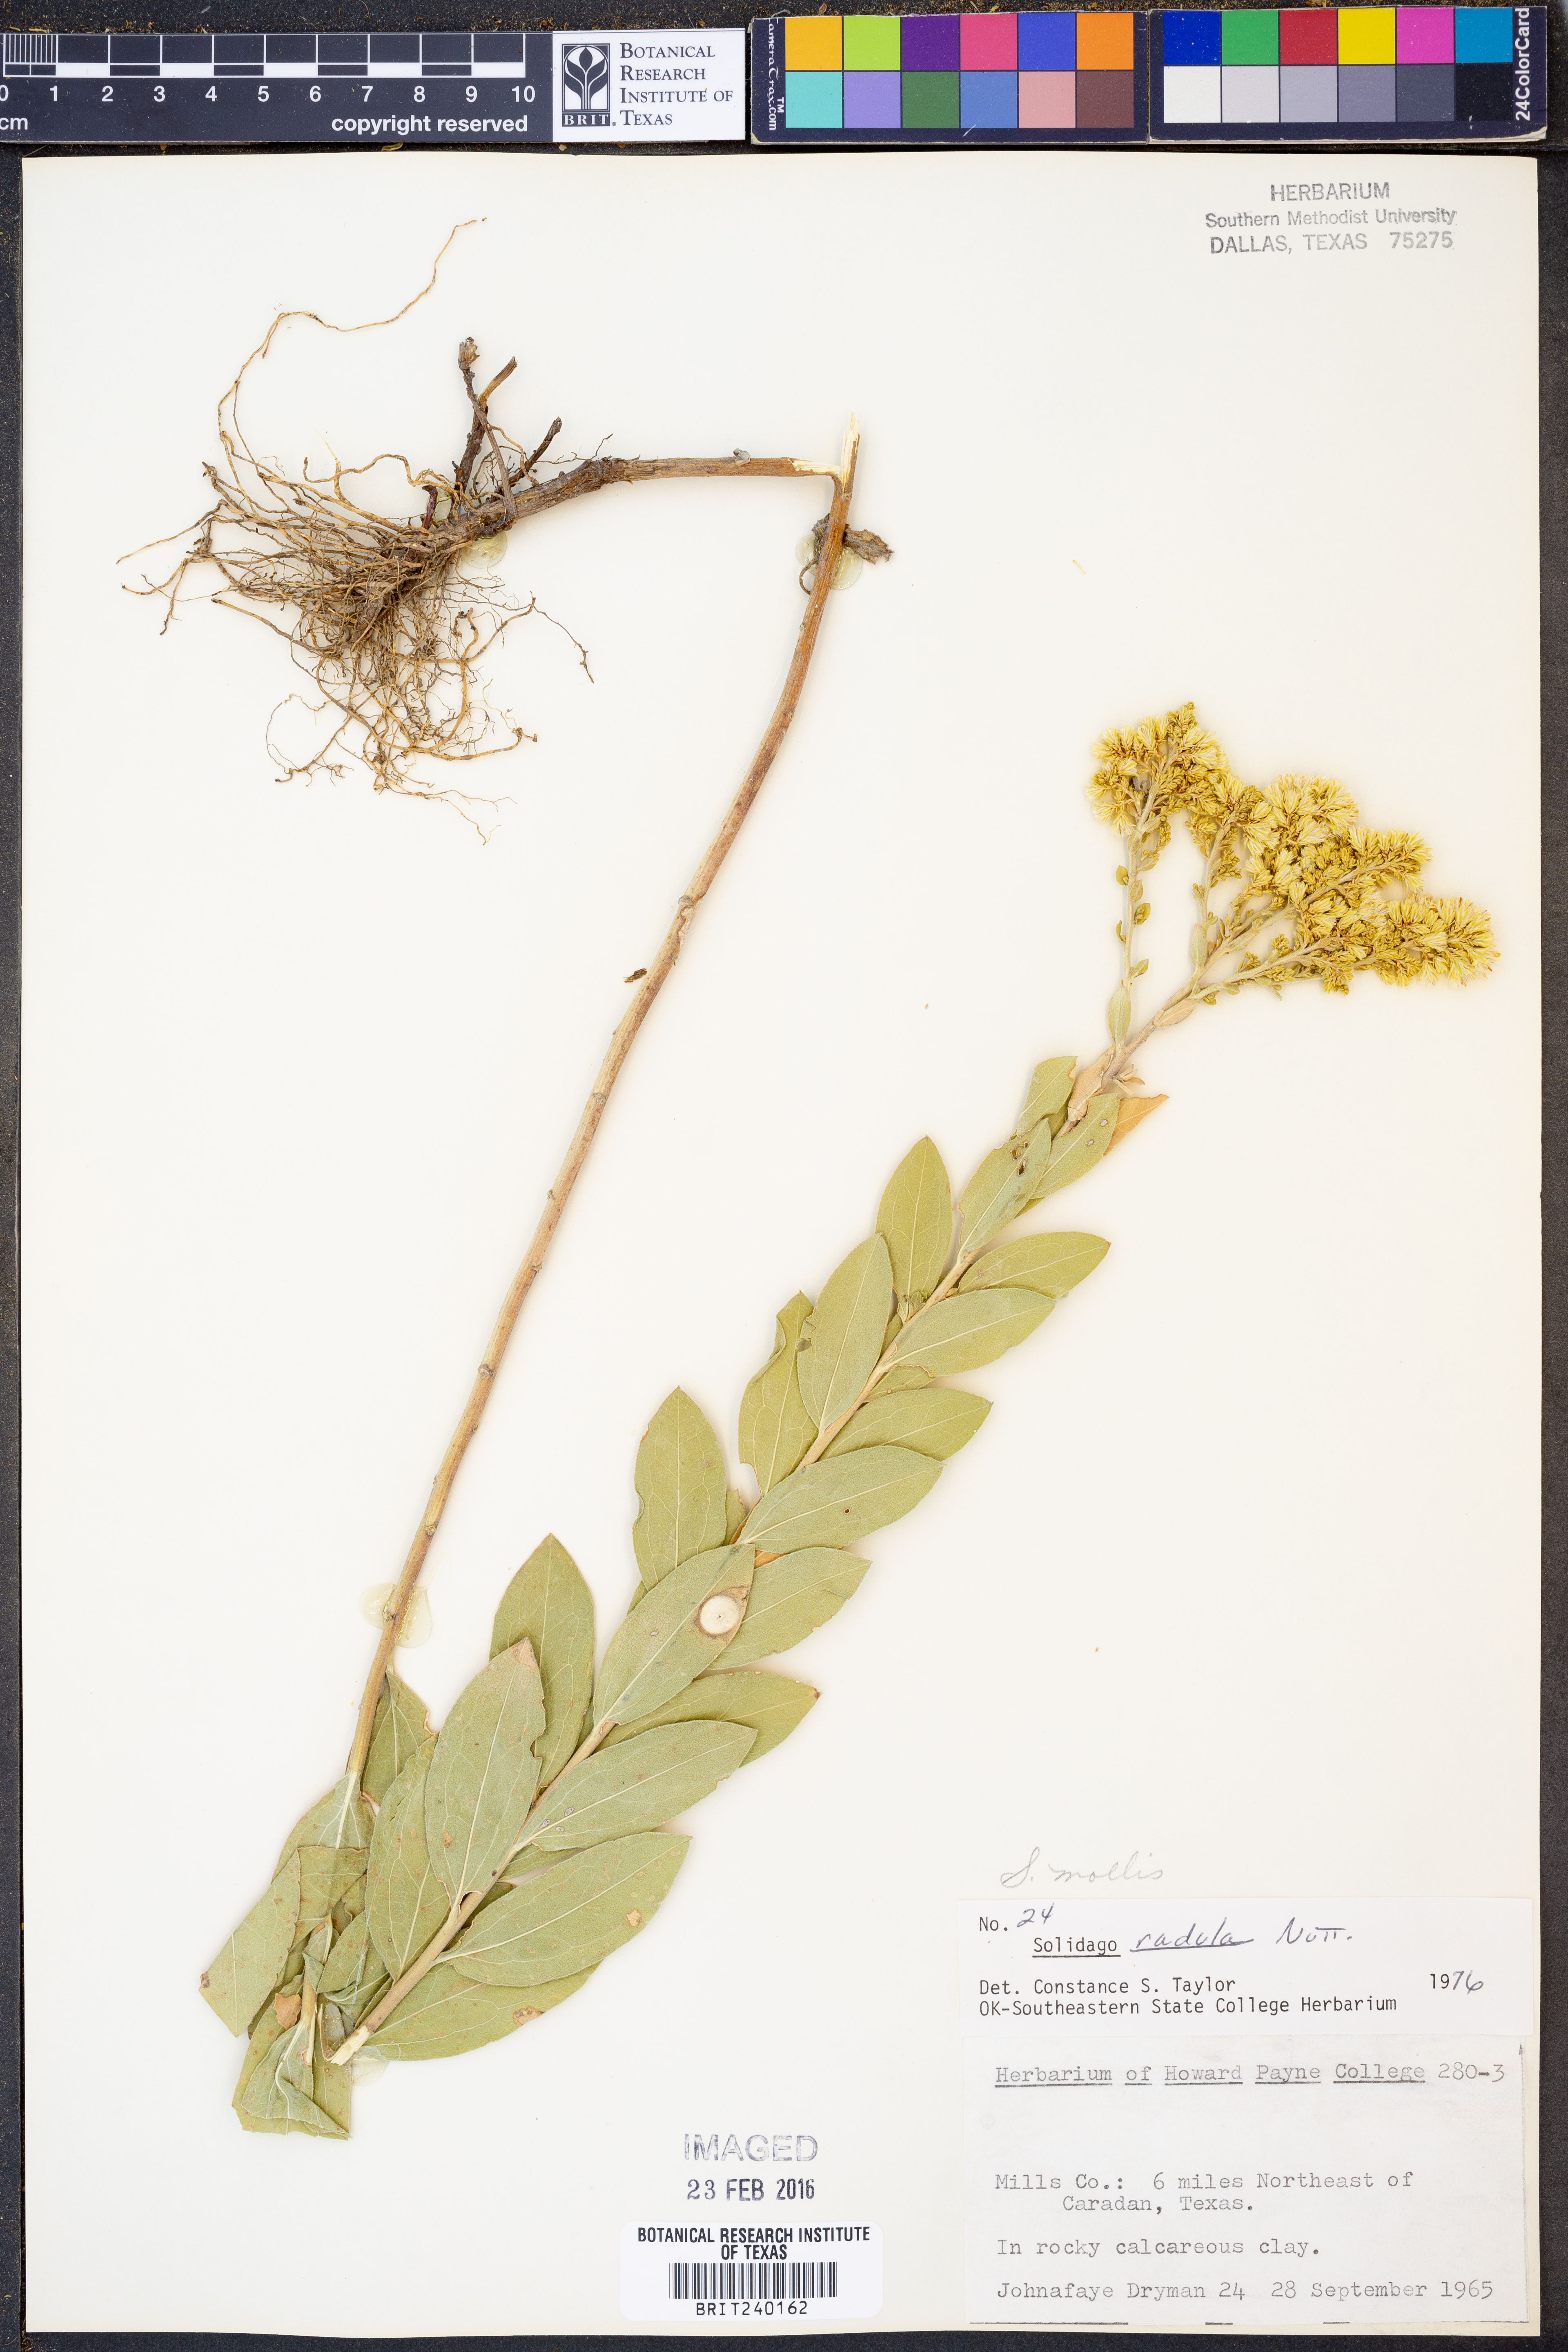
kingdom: Plantae
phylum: Tracheophyta
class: Magnoliopsida
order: Asterales
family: Asteraceae
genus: Solidago
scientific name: Solidago mollis
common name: Ashly goldenrod
